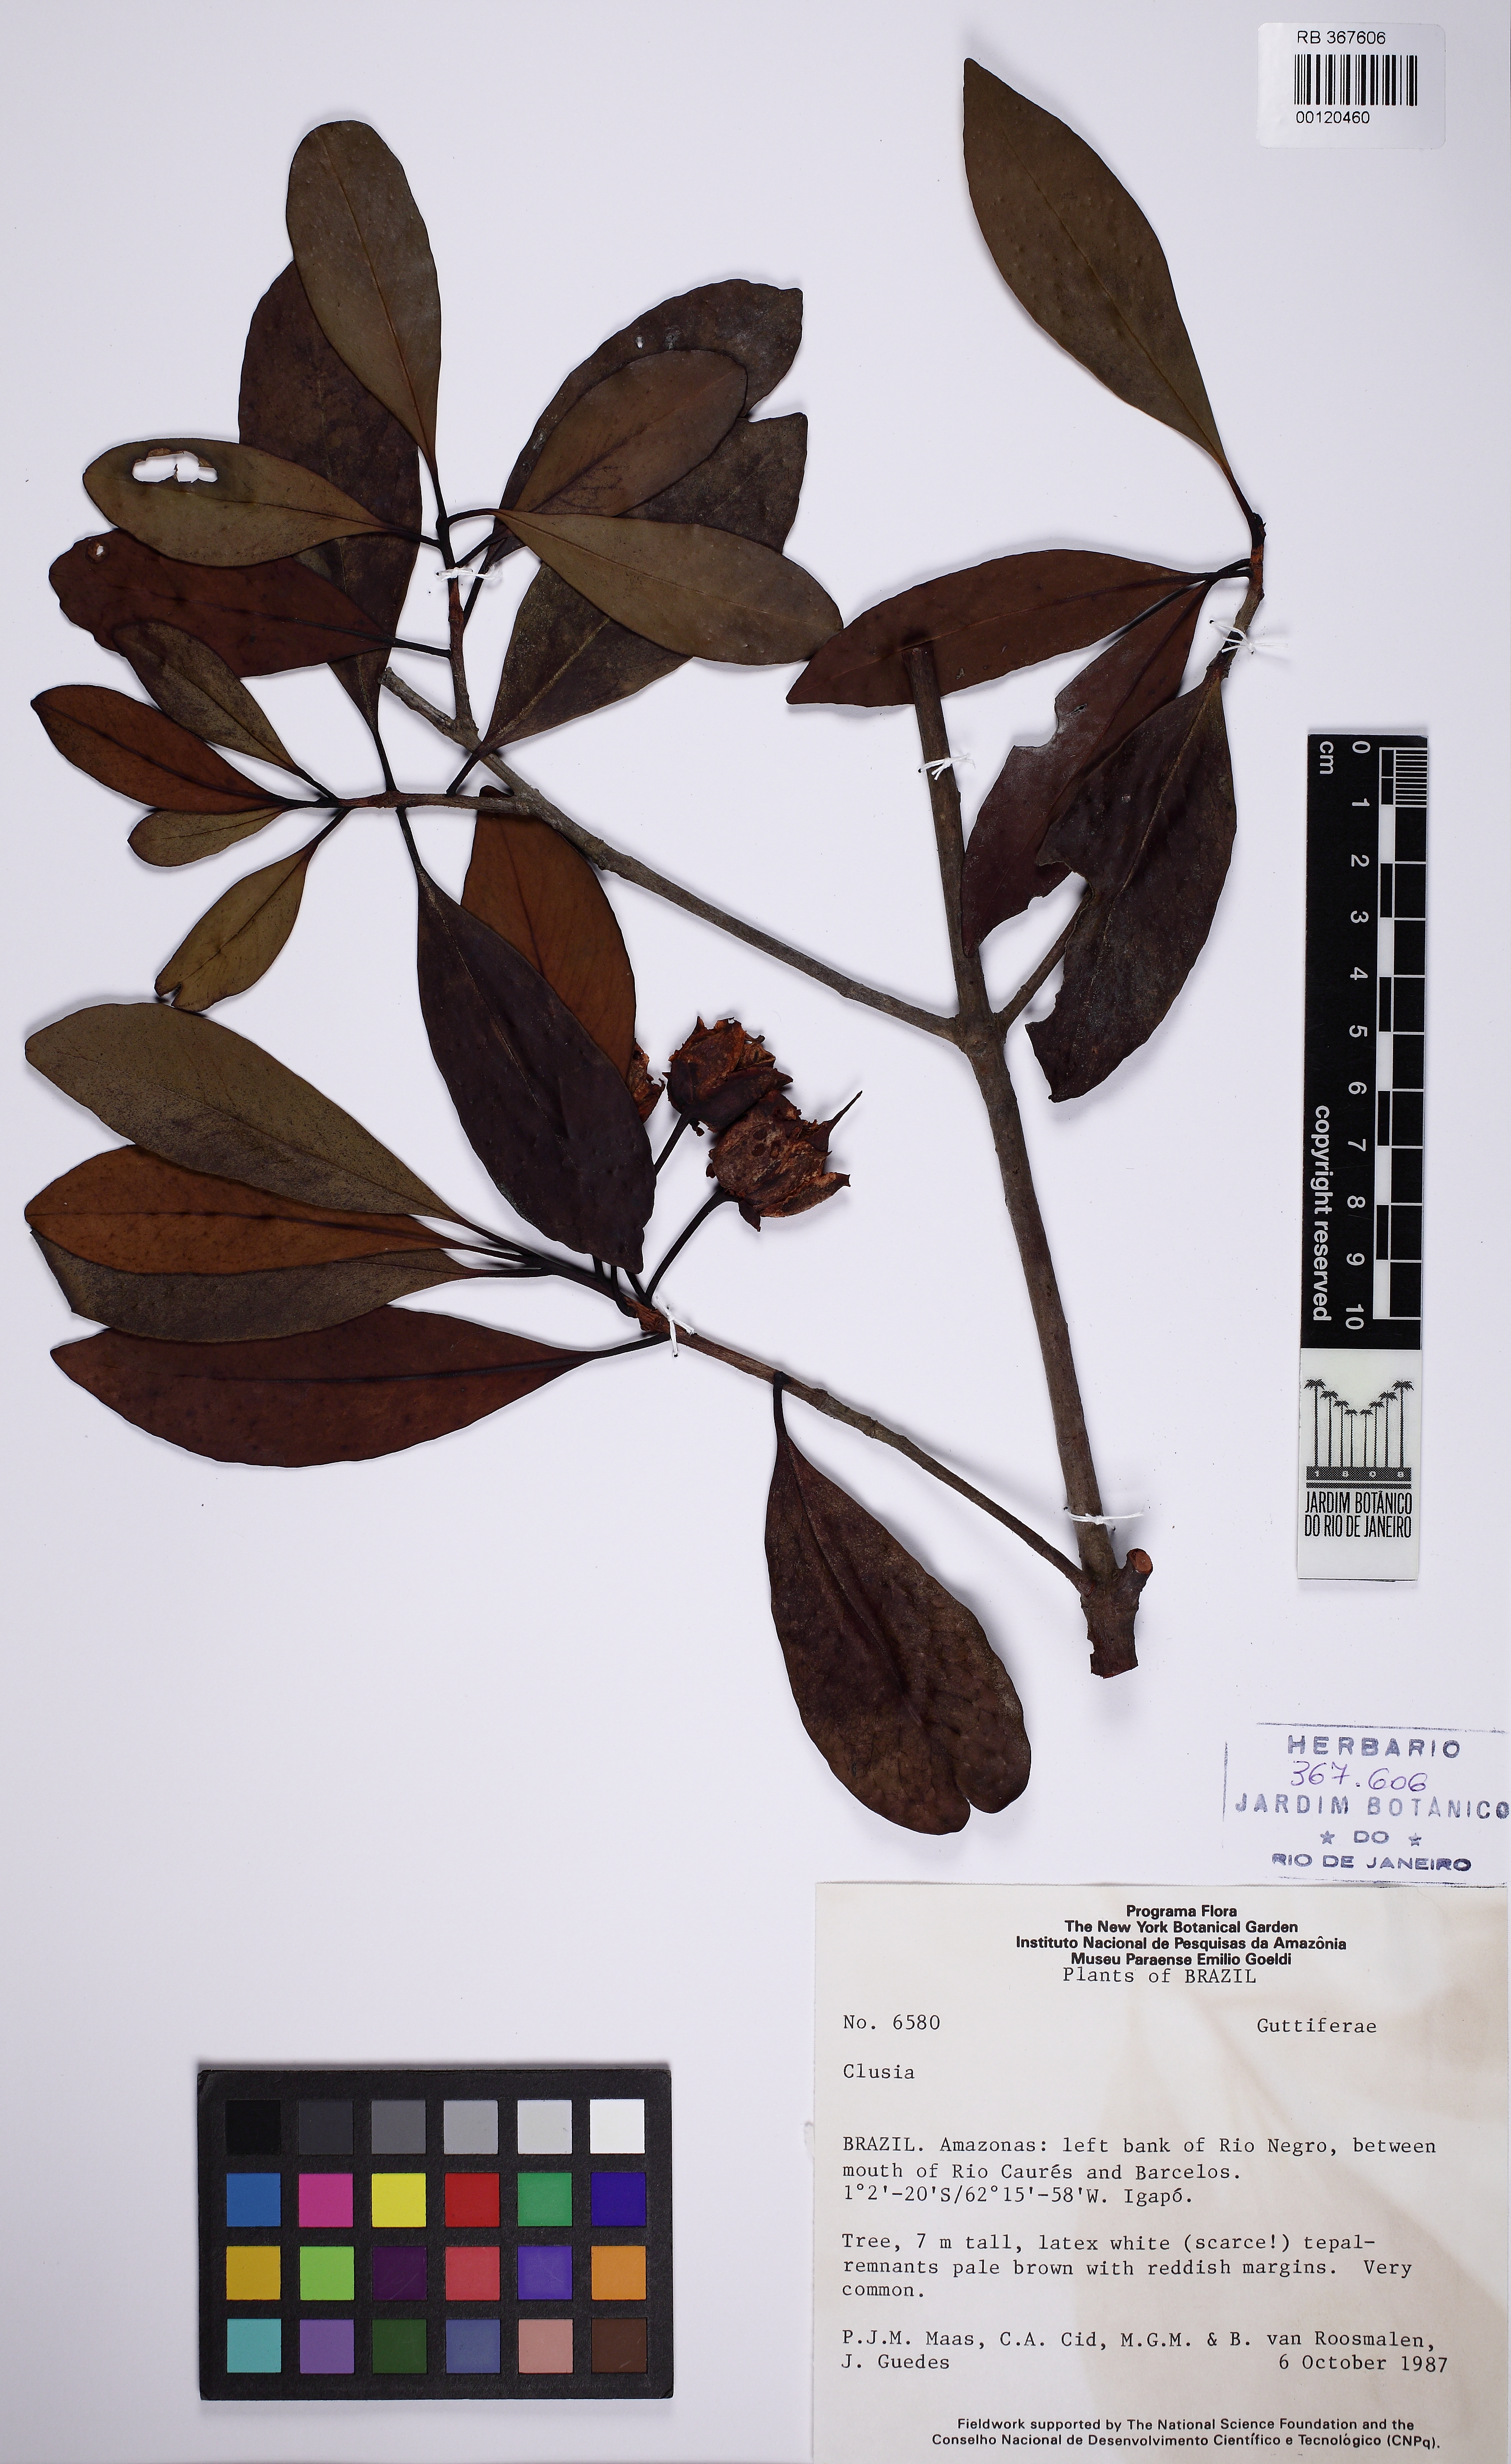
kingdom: Plantae
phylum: Tracheophyta
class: Magnoliopsida
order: Ericales
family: Pentaphylacaceae
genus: Ternstroemia
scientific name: Ternstroemia candolleana
